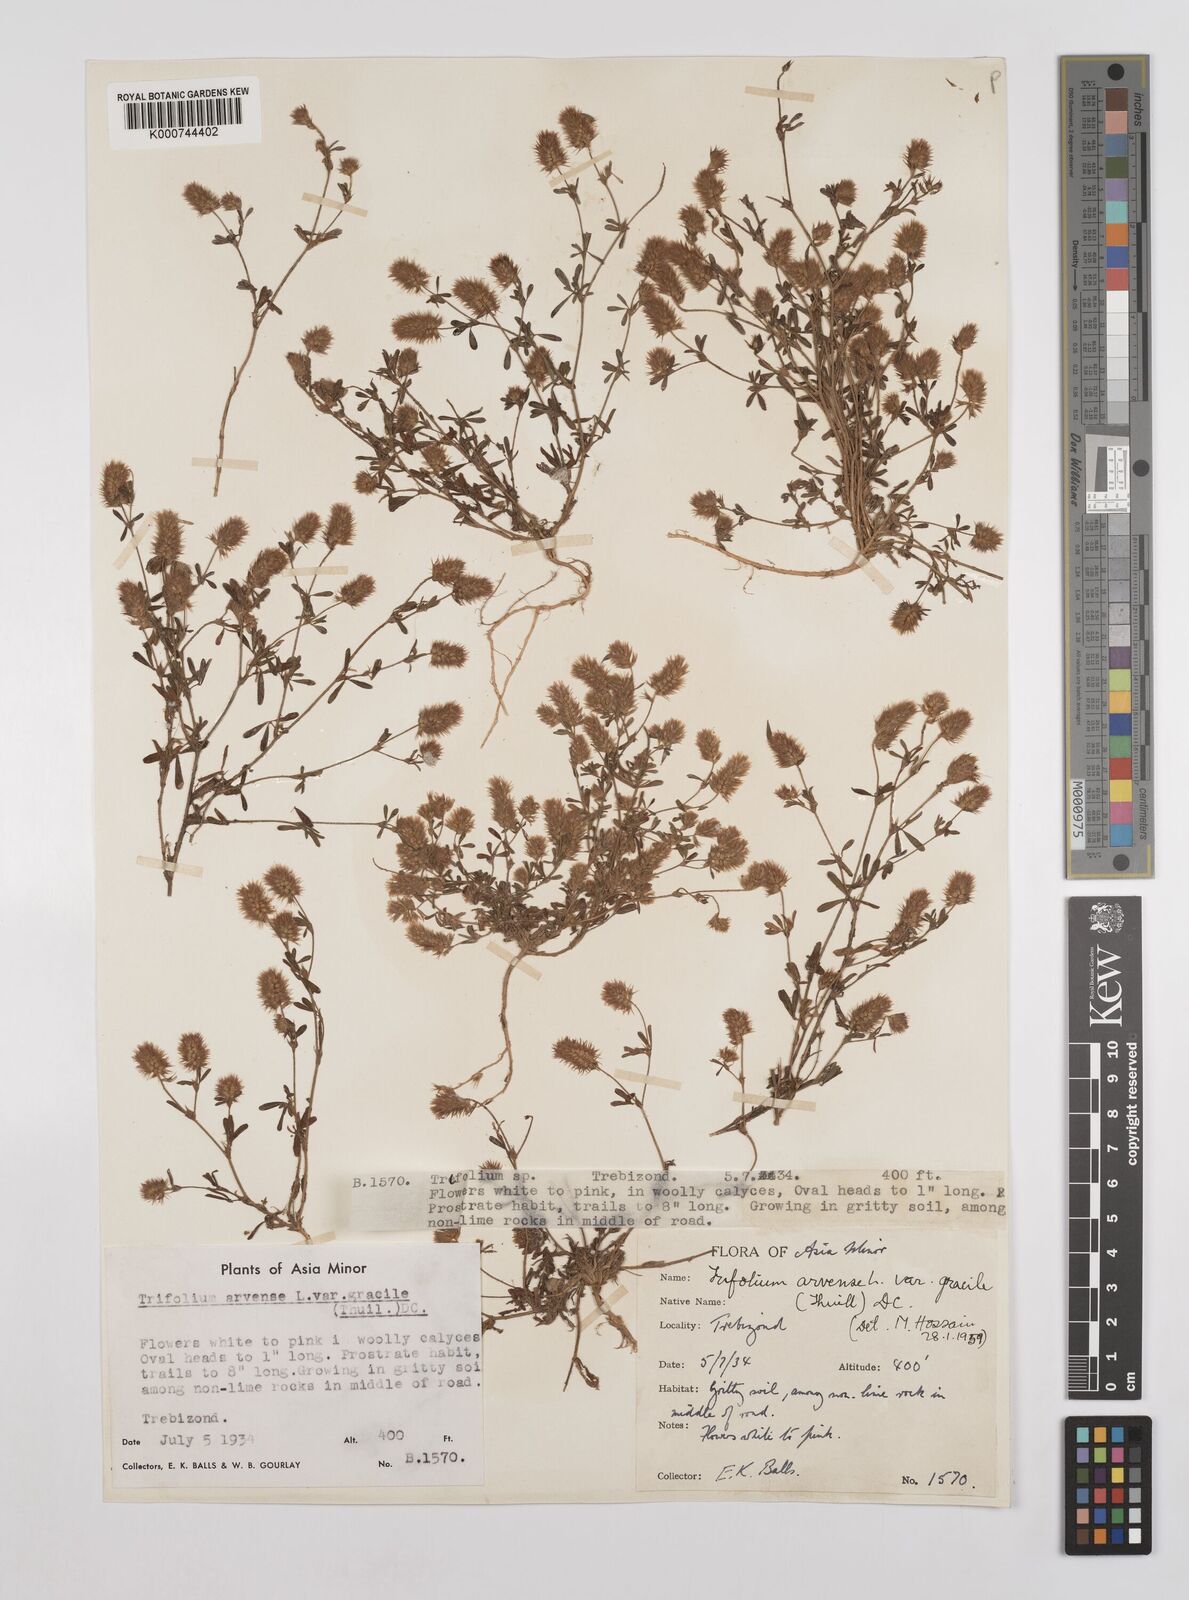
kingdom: Plantae
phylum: Tracheophyta
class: Magnoliopsida
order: Fabales
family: Fabaceae
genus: Trifolium
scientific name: Trifolium arvense
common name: Hare's-foot clover
